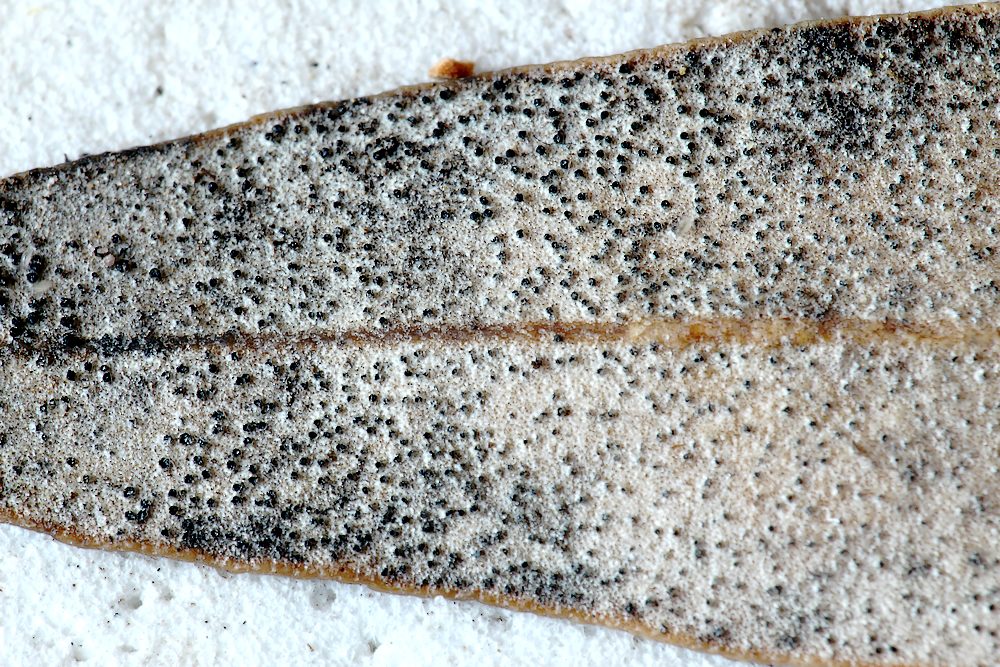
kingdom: Fungi
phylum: Ascomycota
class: Dothideomycetes
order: Botryosphaeriales
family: Botryosphaeriaceae
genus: Dothiora
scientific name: Dothiora oleae
